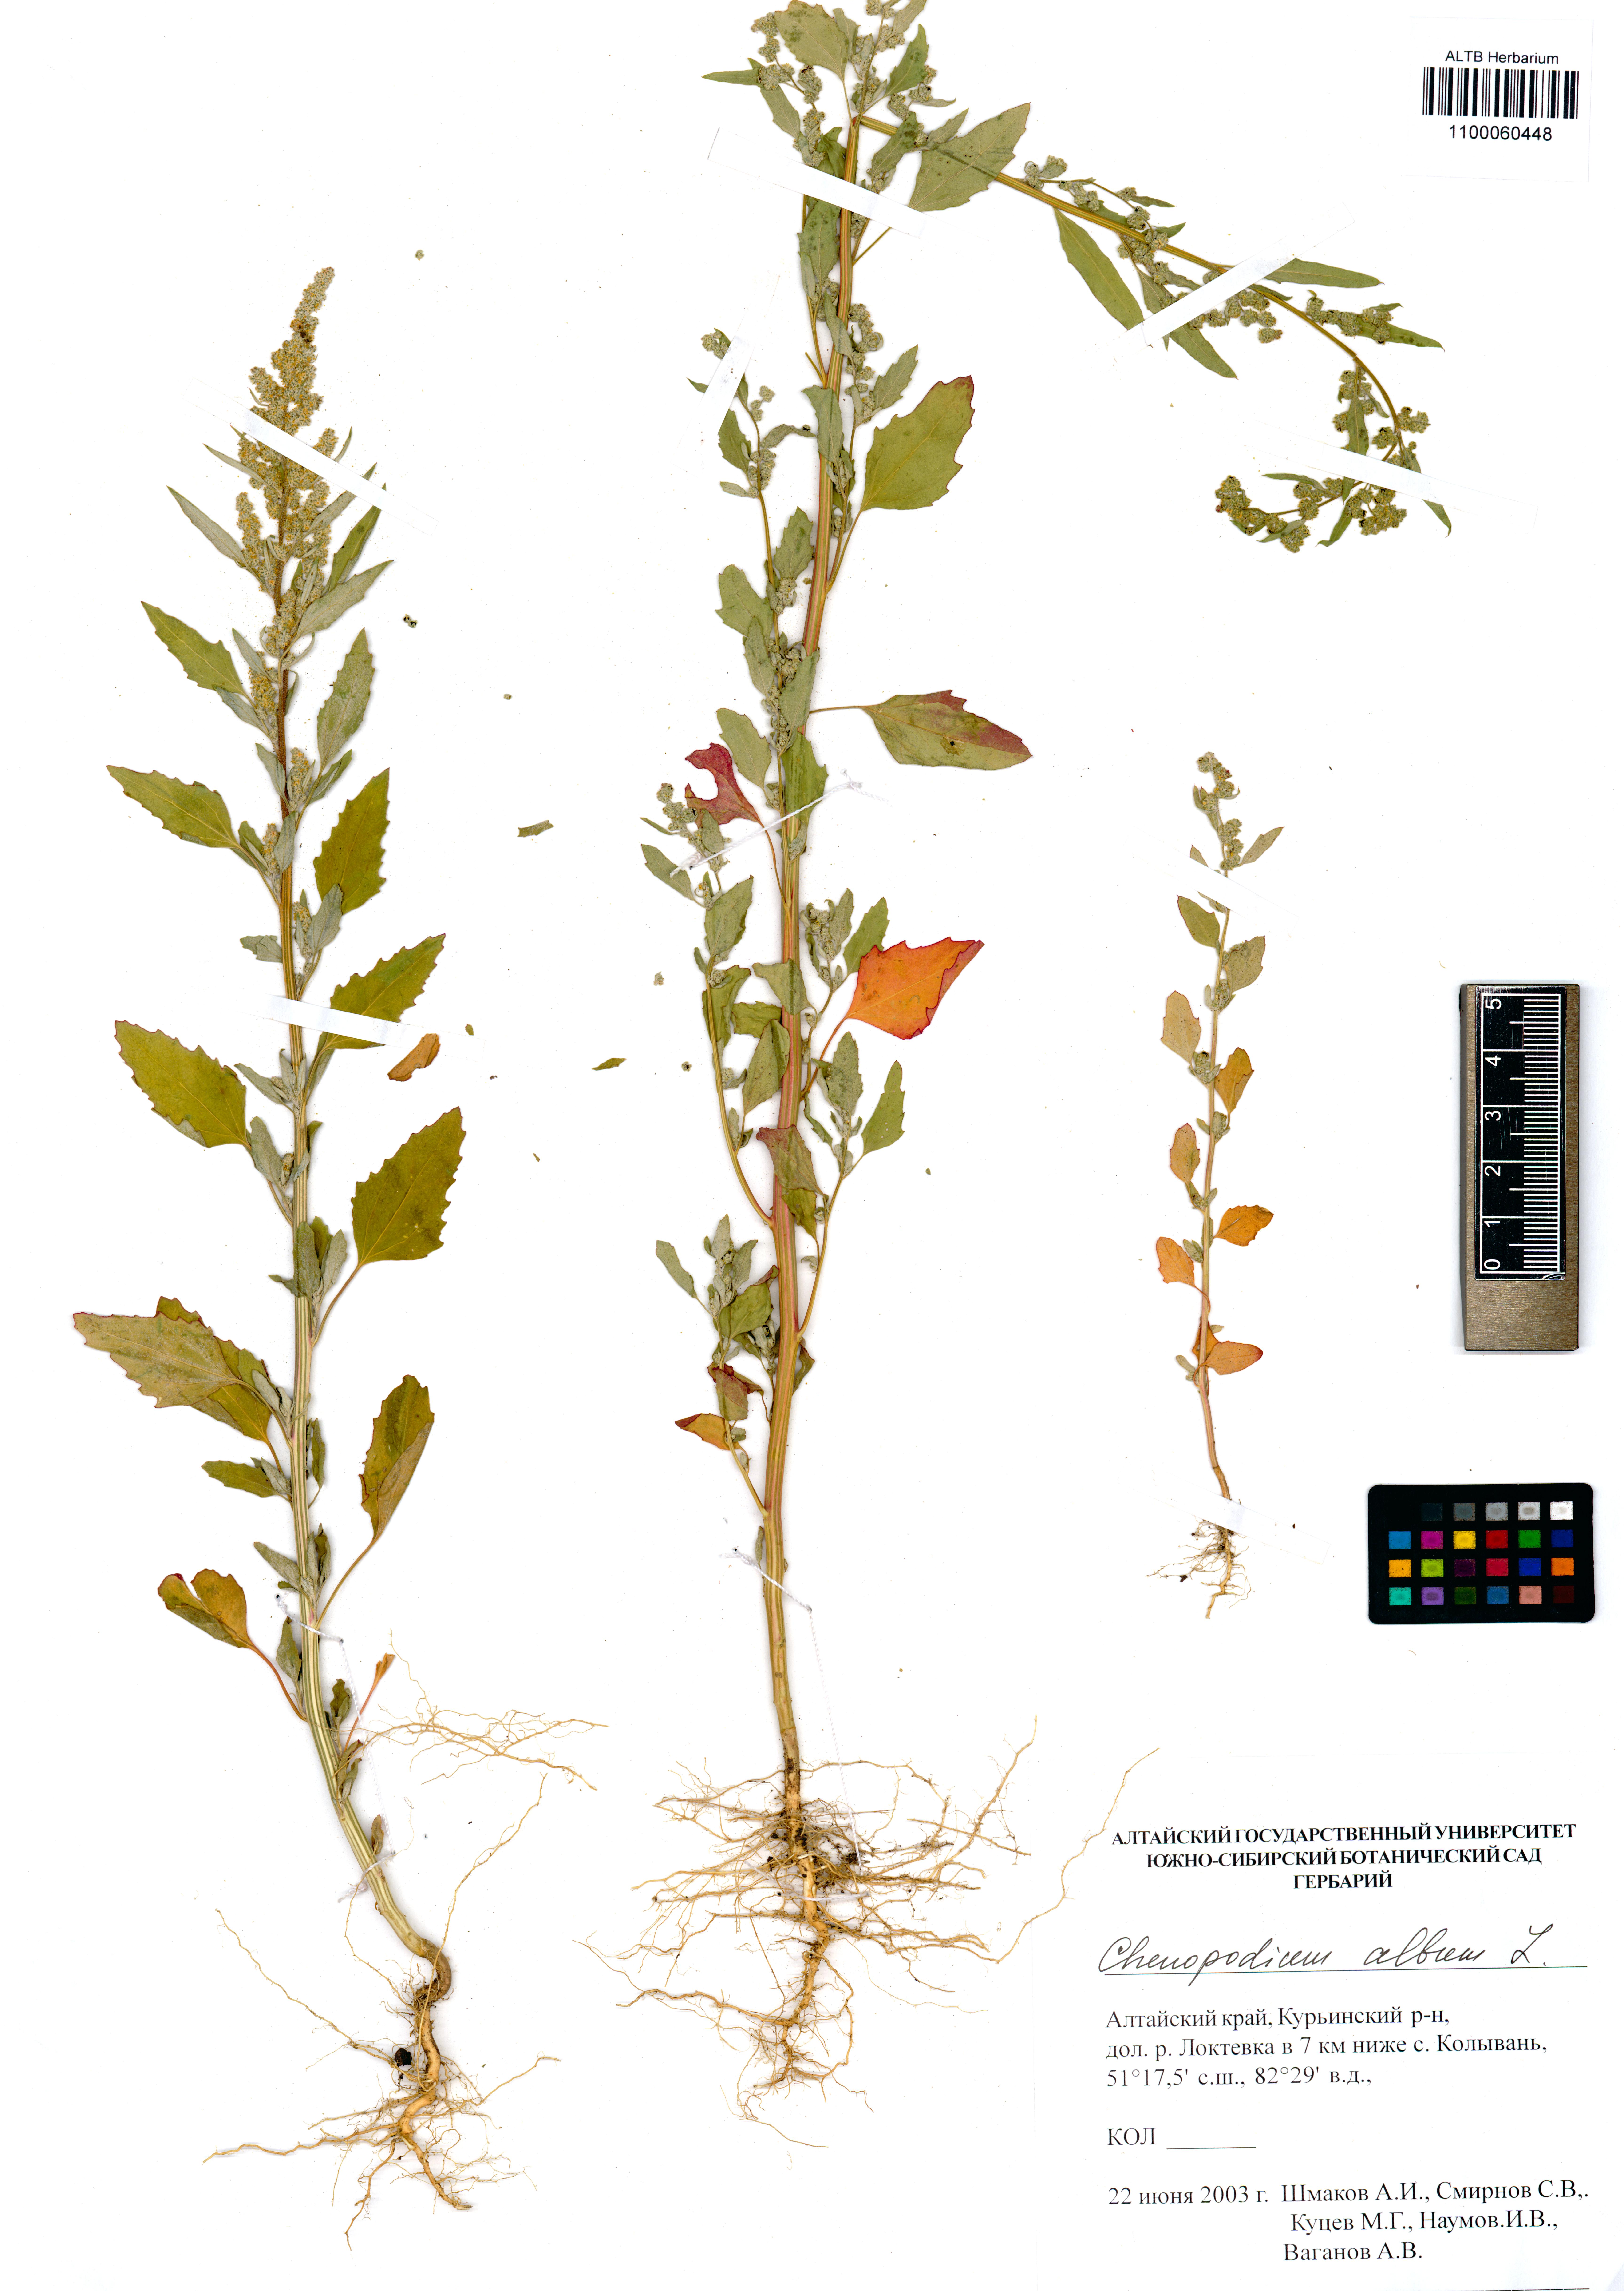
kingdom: Plantae
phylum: Tracheophyta
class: Magnoliopsida
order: Caryophyllales
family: Amaranthaceae
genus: Chenopodium
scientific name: Chenopodium album
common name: Fat-hen
